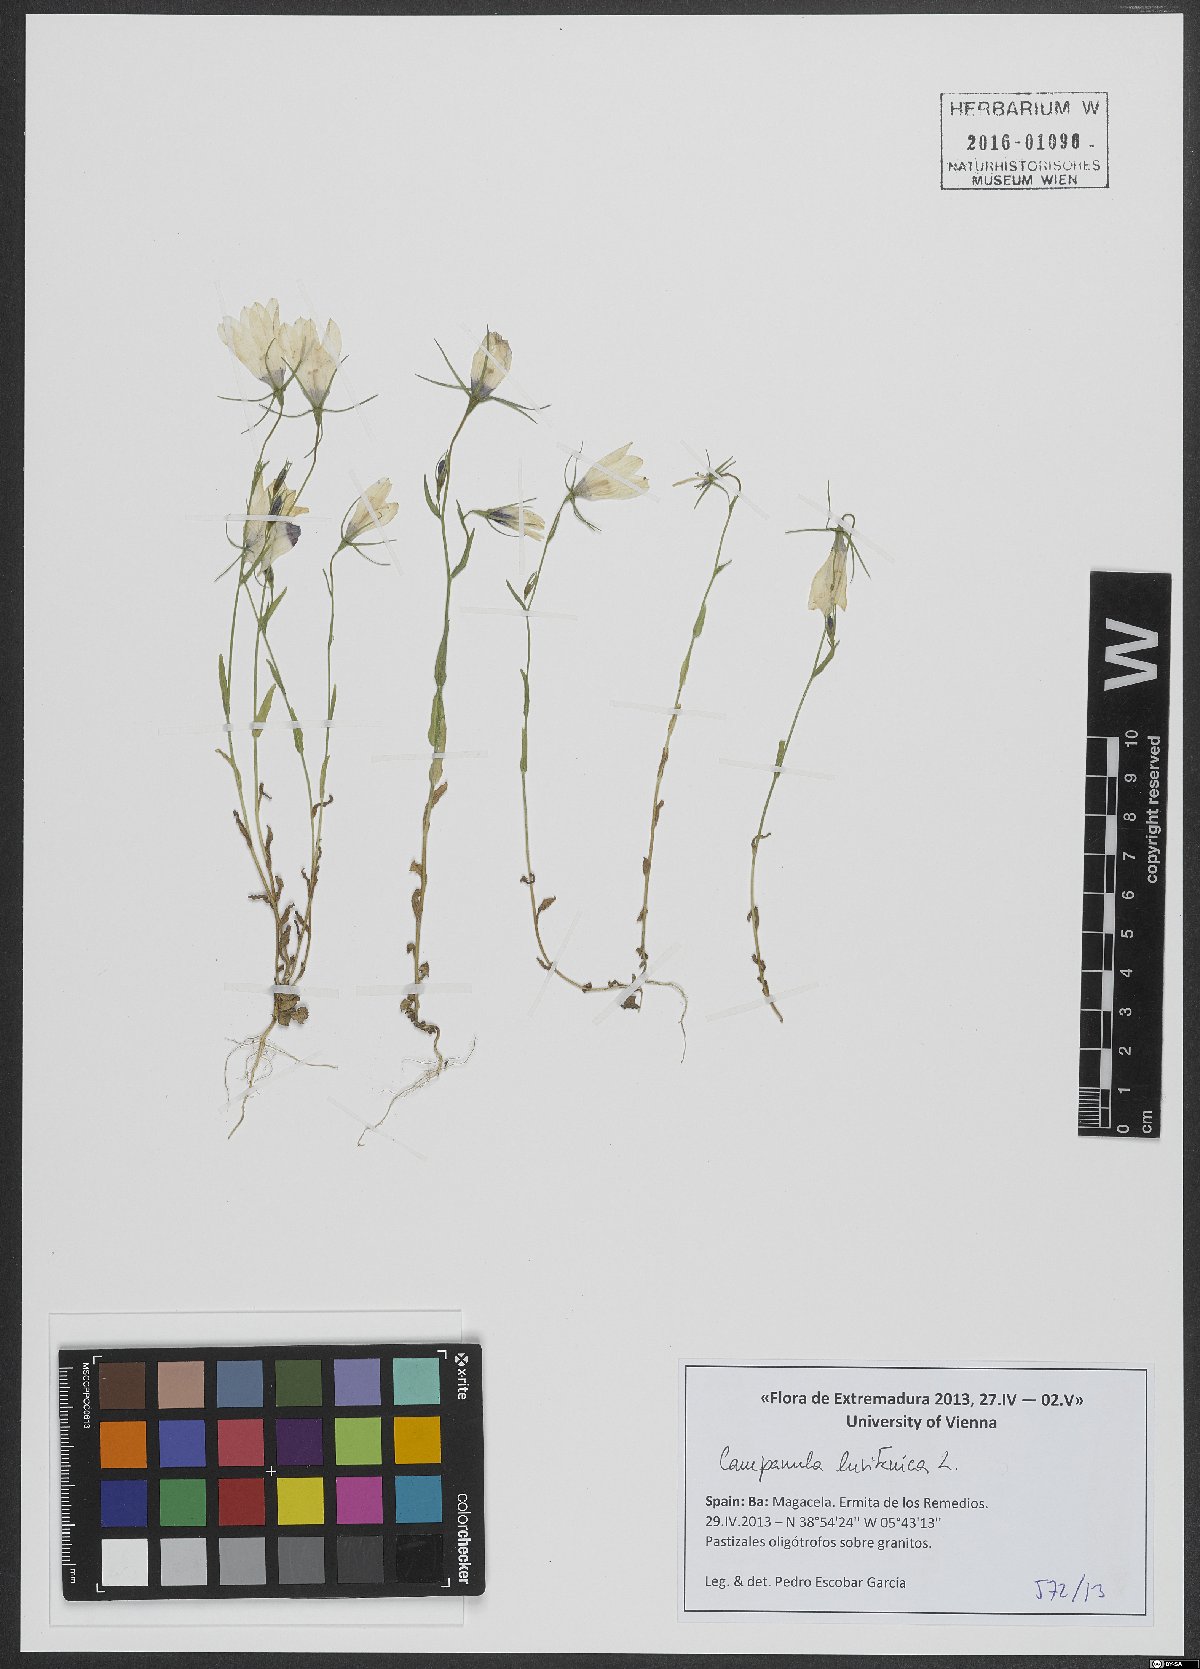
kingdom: Plantae
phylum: Tracheophyta
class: Magnoliopsida
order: Asterales
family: Campanulaceae
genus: Campanula
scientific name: Campanula lusitanica
